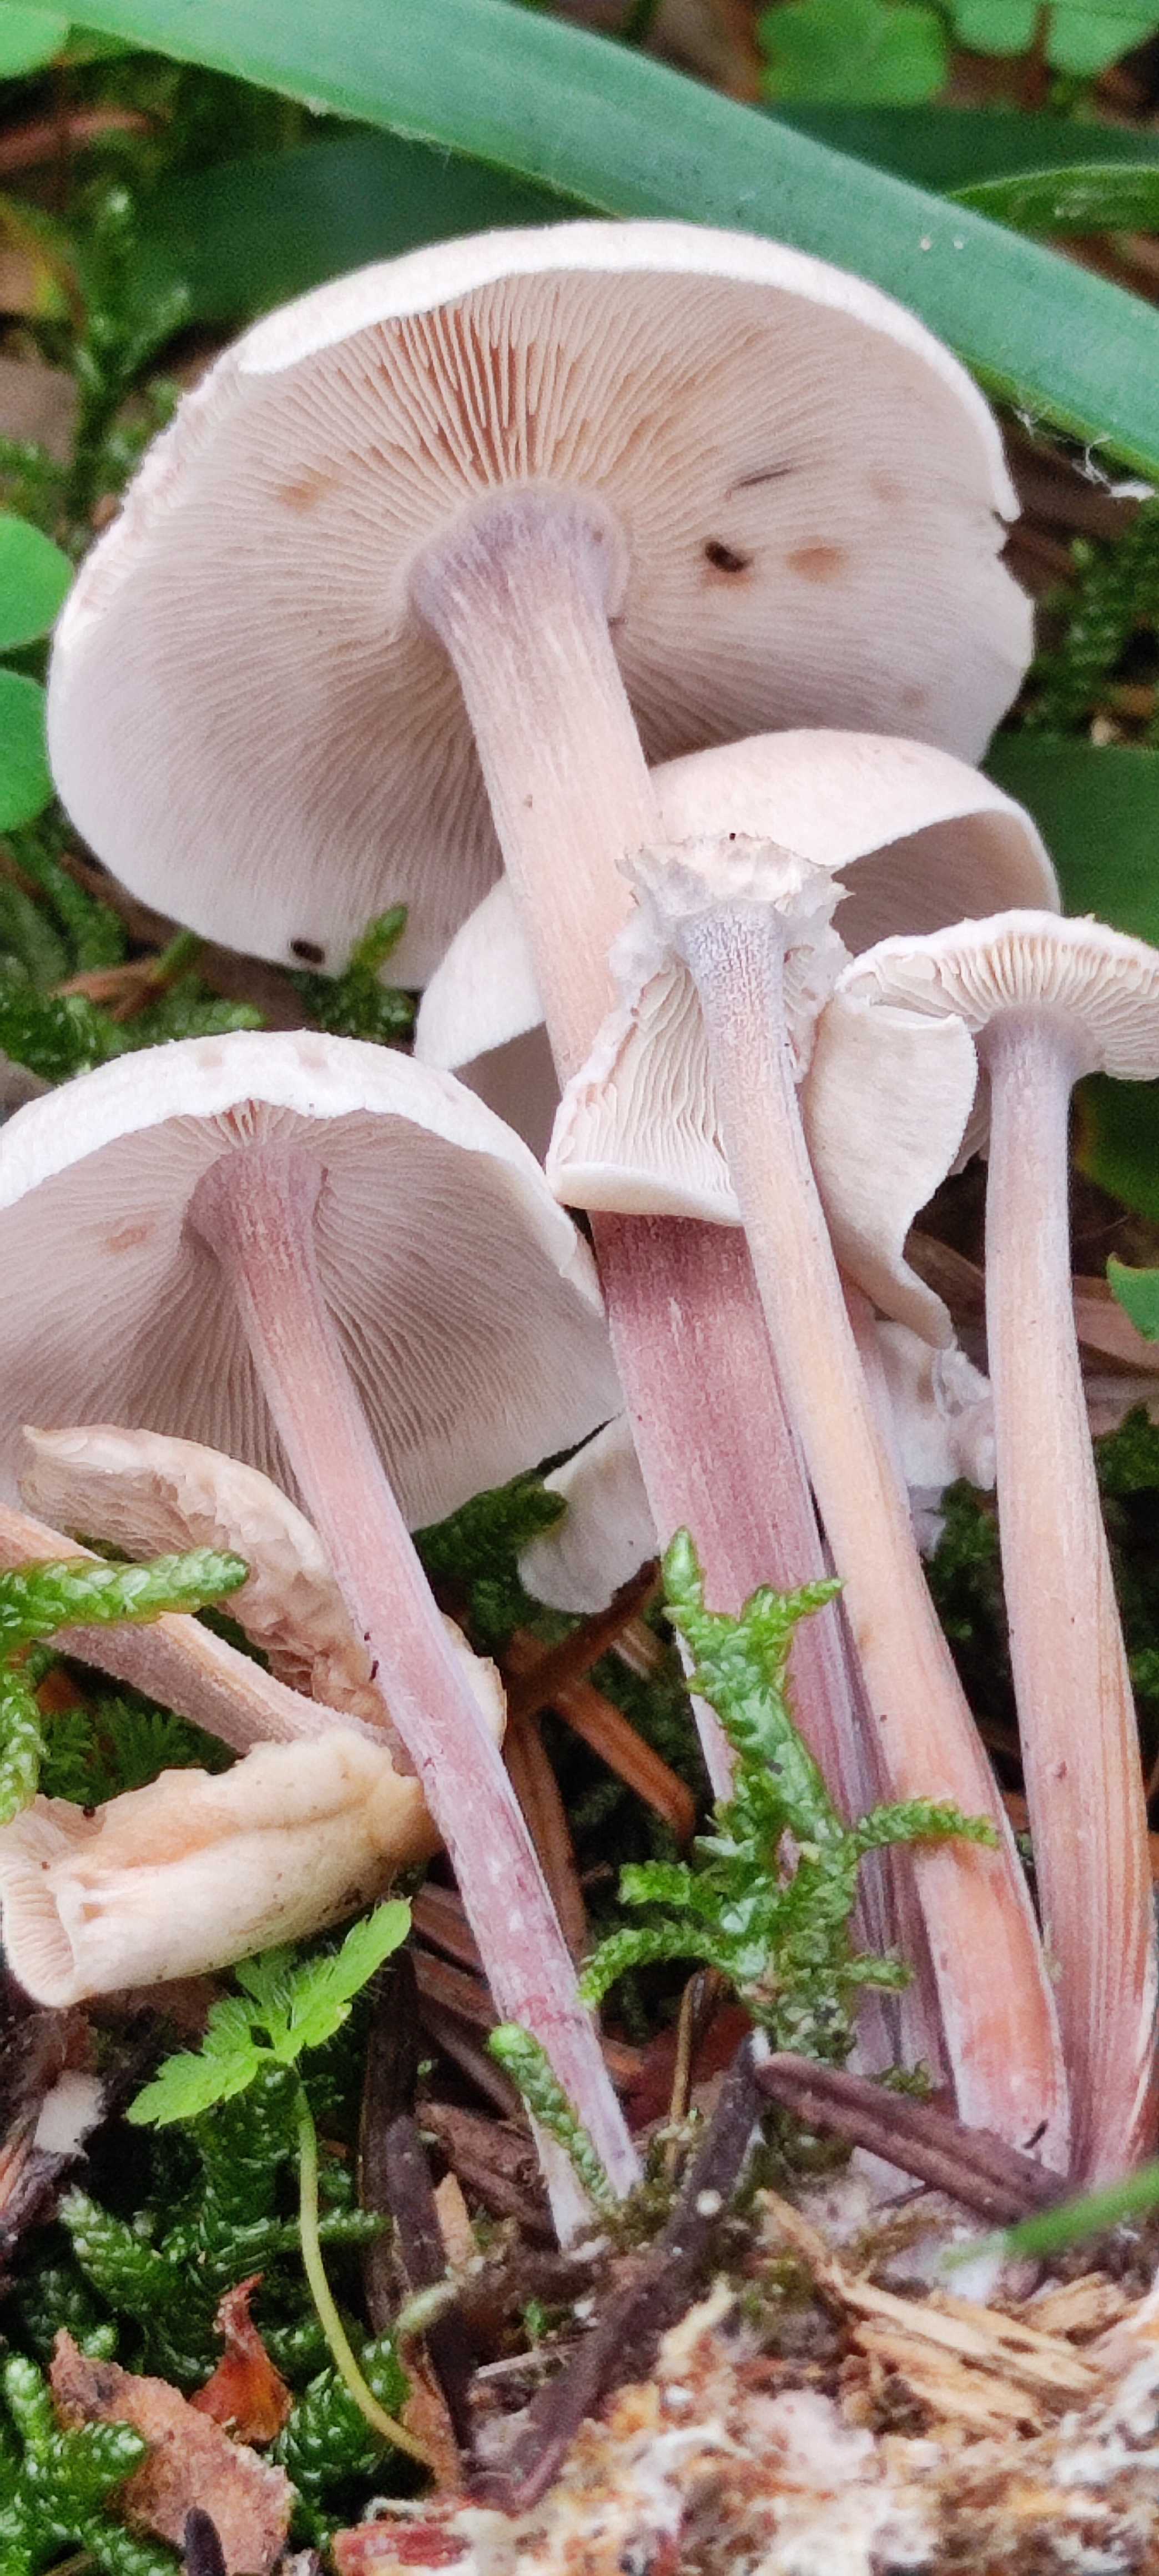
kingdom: Fungi
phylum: Basidiomycota
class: Agaricomycetes
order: Agaricales
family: Omphalotaceae
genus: Collybiopsis
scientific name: Collybiopsis confluens
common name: knippe-fladhat
